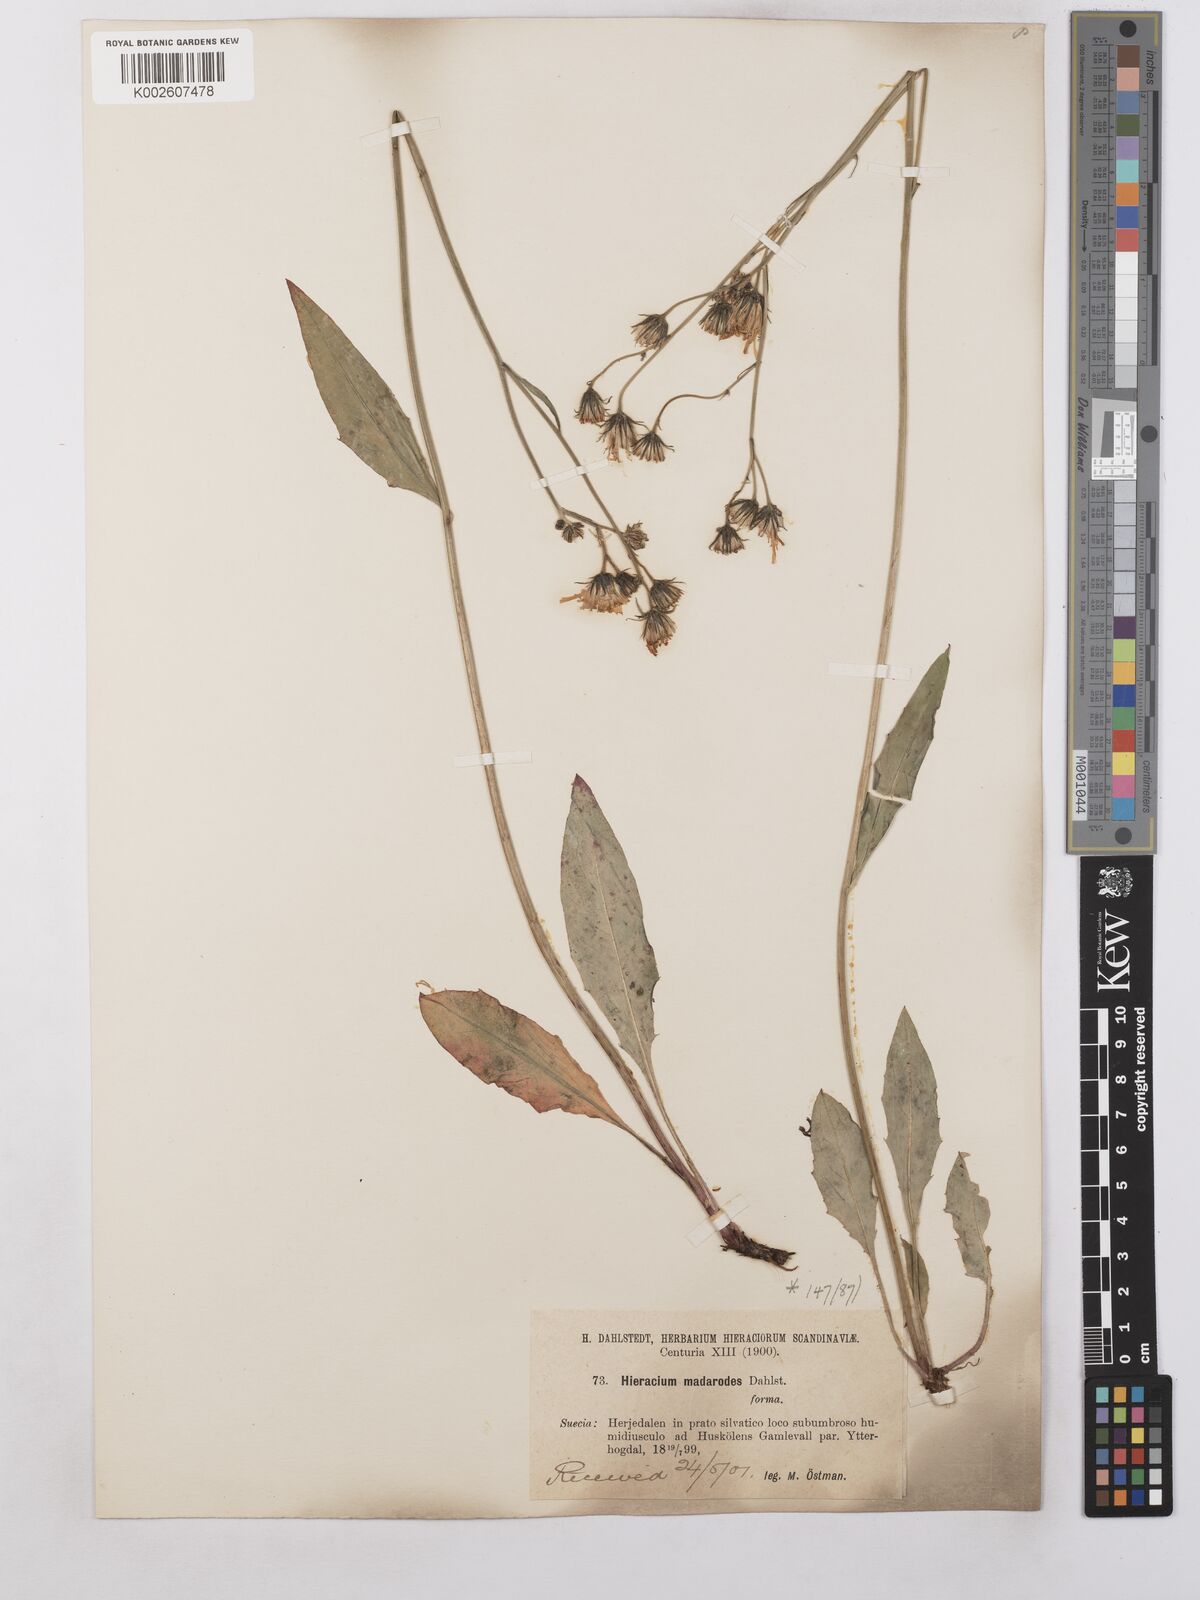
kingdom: Plantae
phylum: Tracheophyta
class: Magnoliopsida
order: Asterales
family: Asteraceae
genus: Hieracium
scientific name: Hieracium caesium
